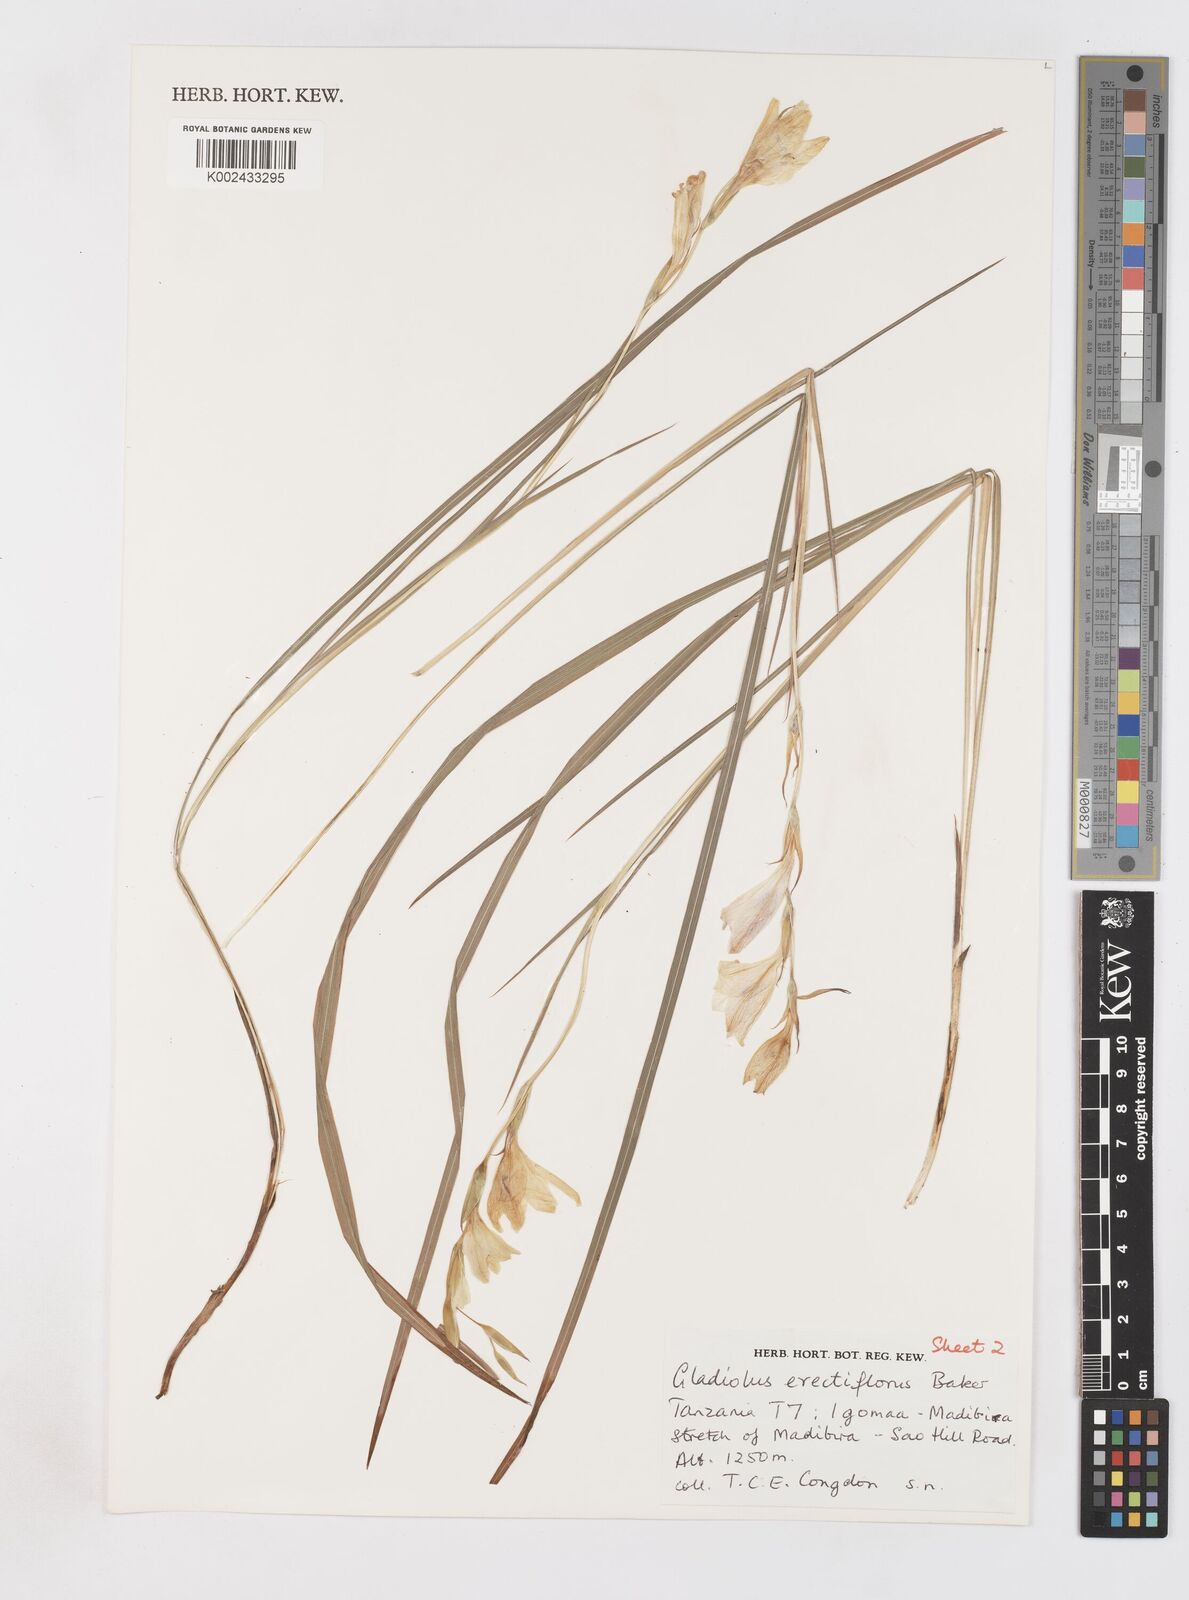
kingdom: Plantae
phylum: Tracheophyta
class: Liliopsida
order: Asparagales
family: Iridaceae
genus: Gladiolus
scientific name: Gladiolus erectiflorus
